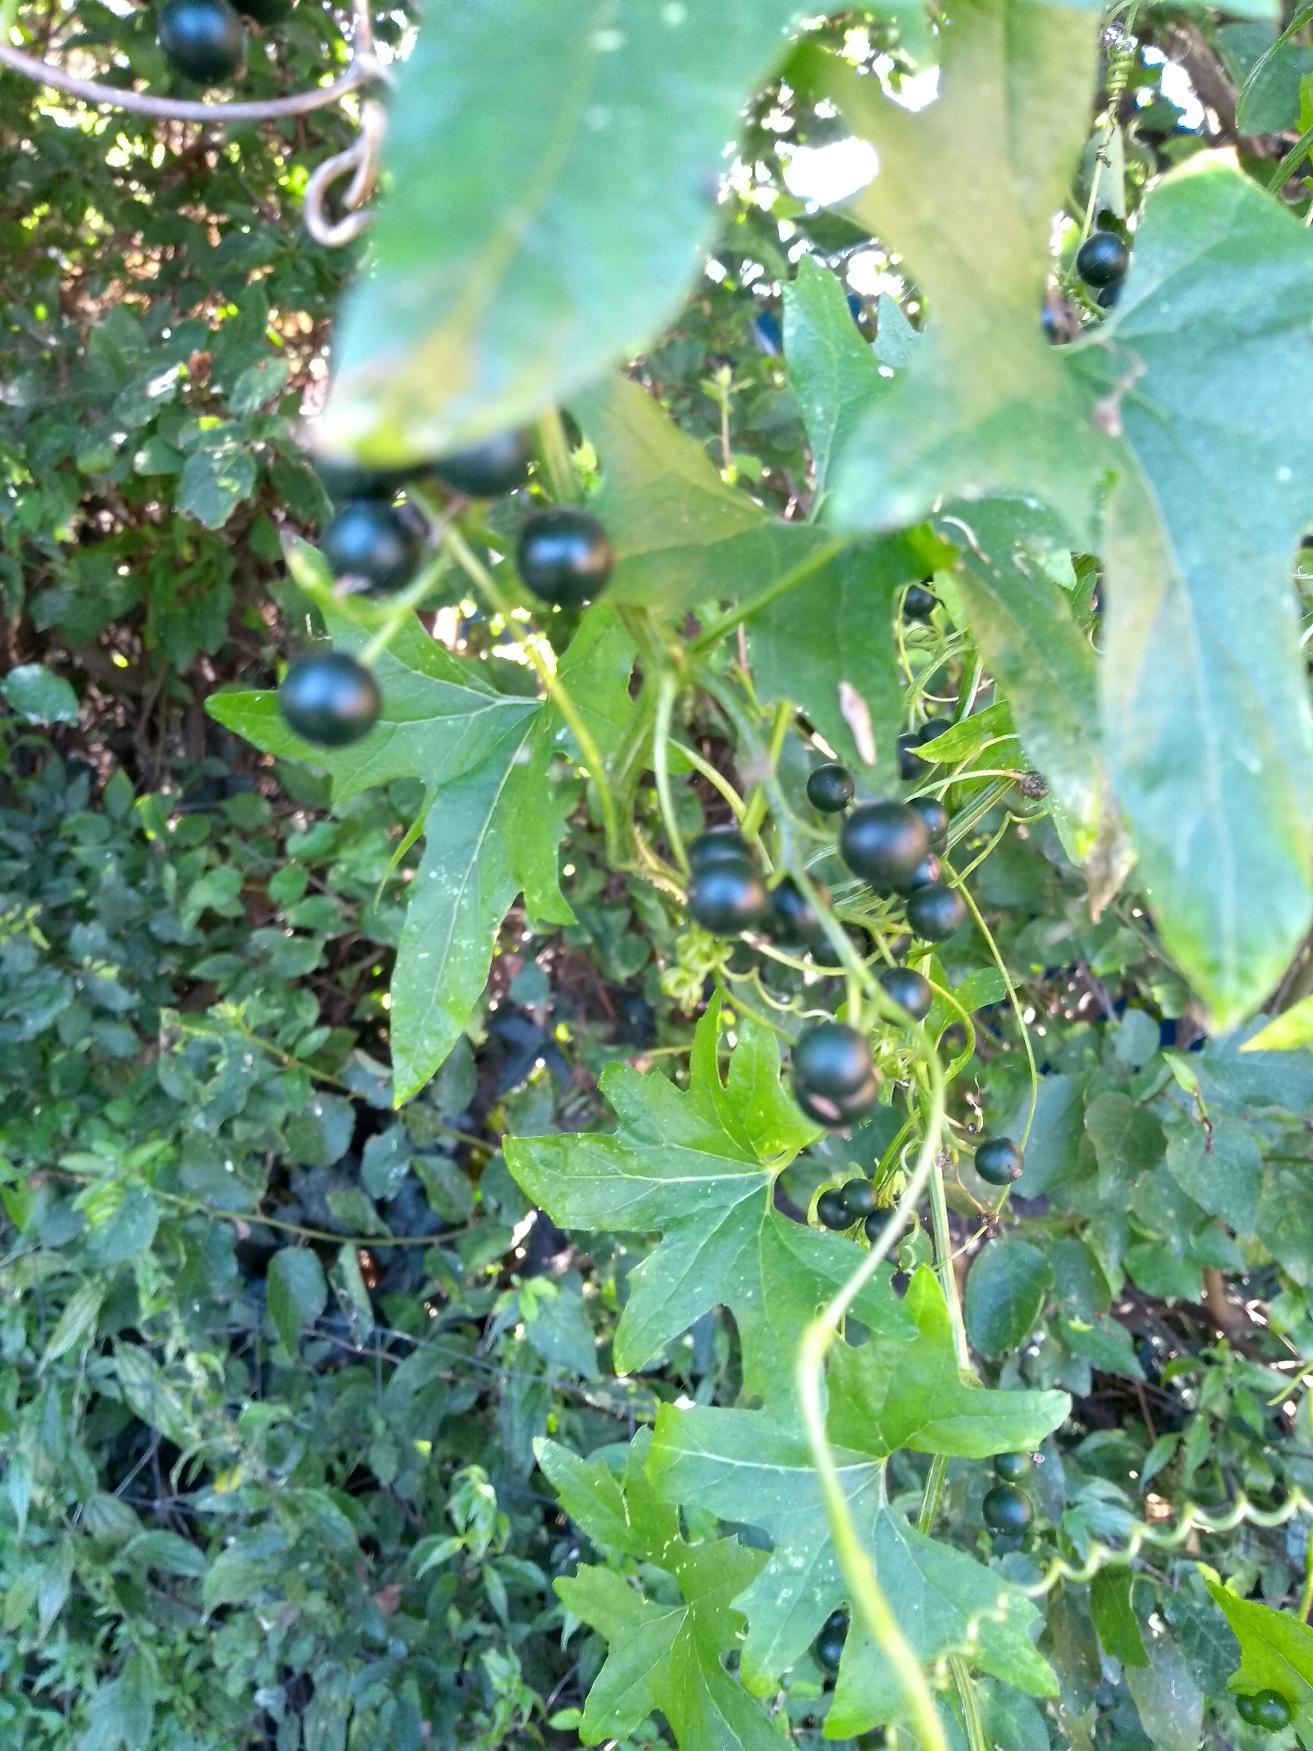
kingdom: Plantae
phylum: Tracheophyta
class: Magnoliopsida
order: Cucurbitales
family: Cucurbitaceae
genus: Bryonia
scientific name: Bryonia alba
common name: Enbo galdebær
